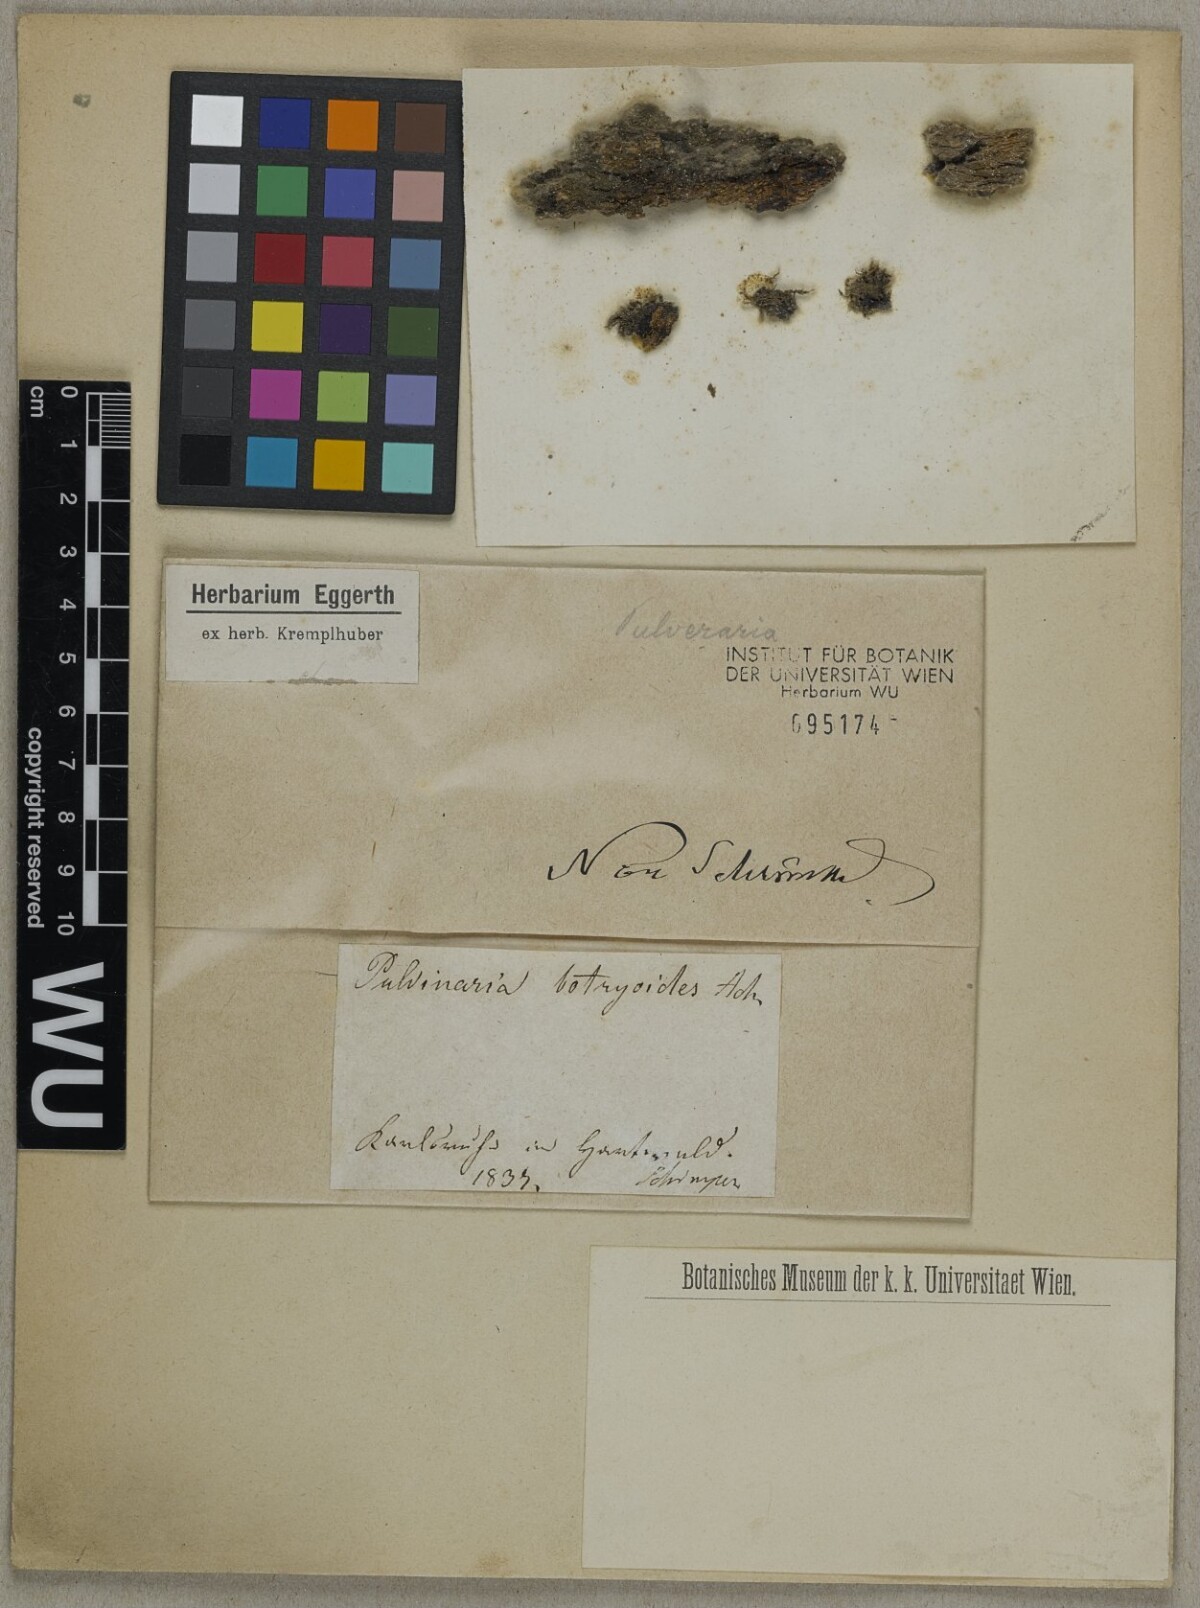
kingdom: Fungi
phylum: Ascomycota
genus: Pulvinaria
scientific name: Pulvinaria
